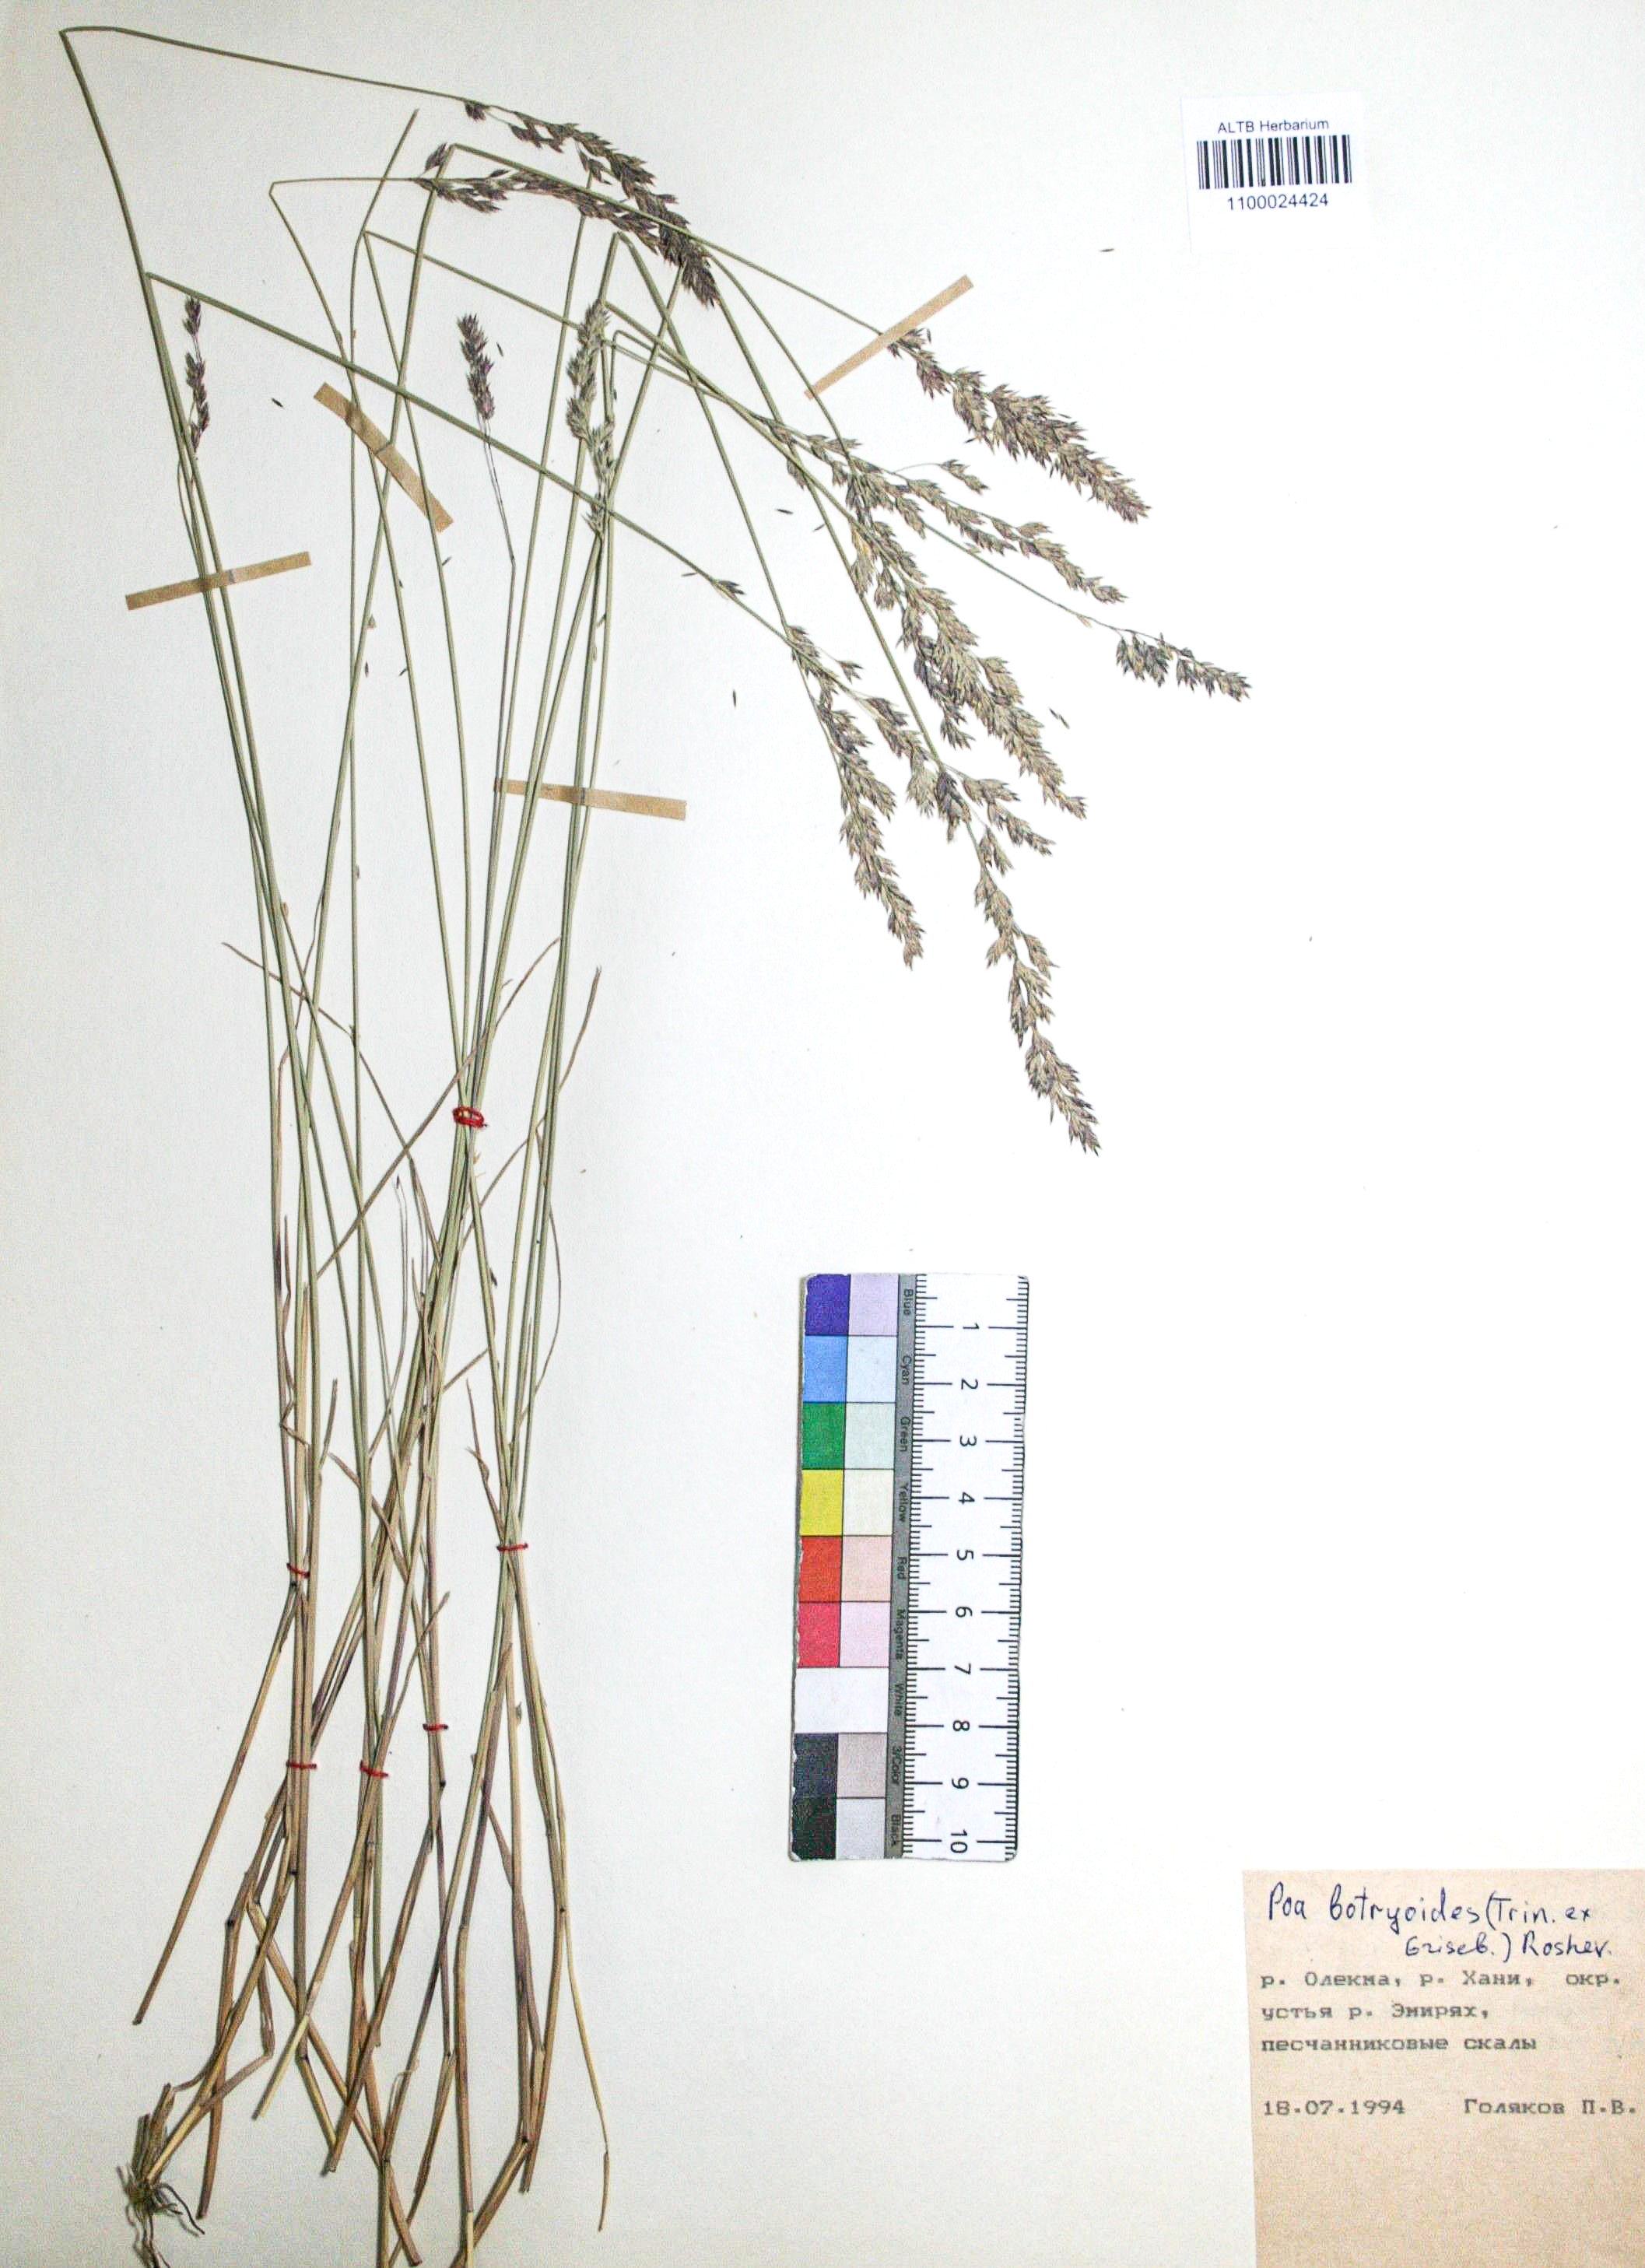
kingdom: Plantae
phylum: Tracheophyta
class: Liliopsida
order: Poales
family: Poaceae
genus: Poa
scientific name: Poa attenuata
